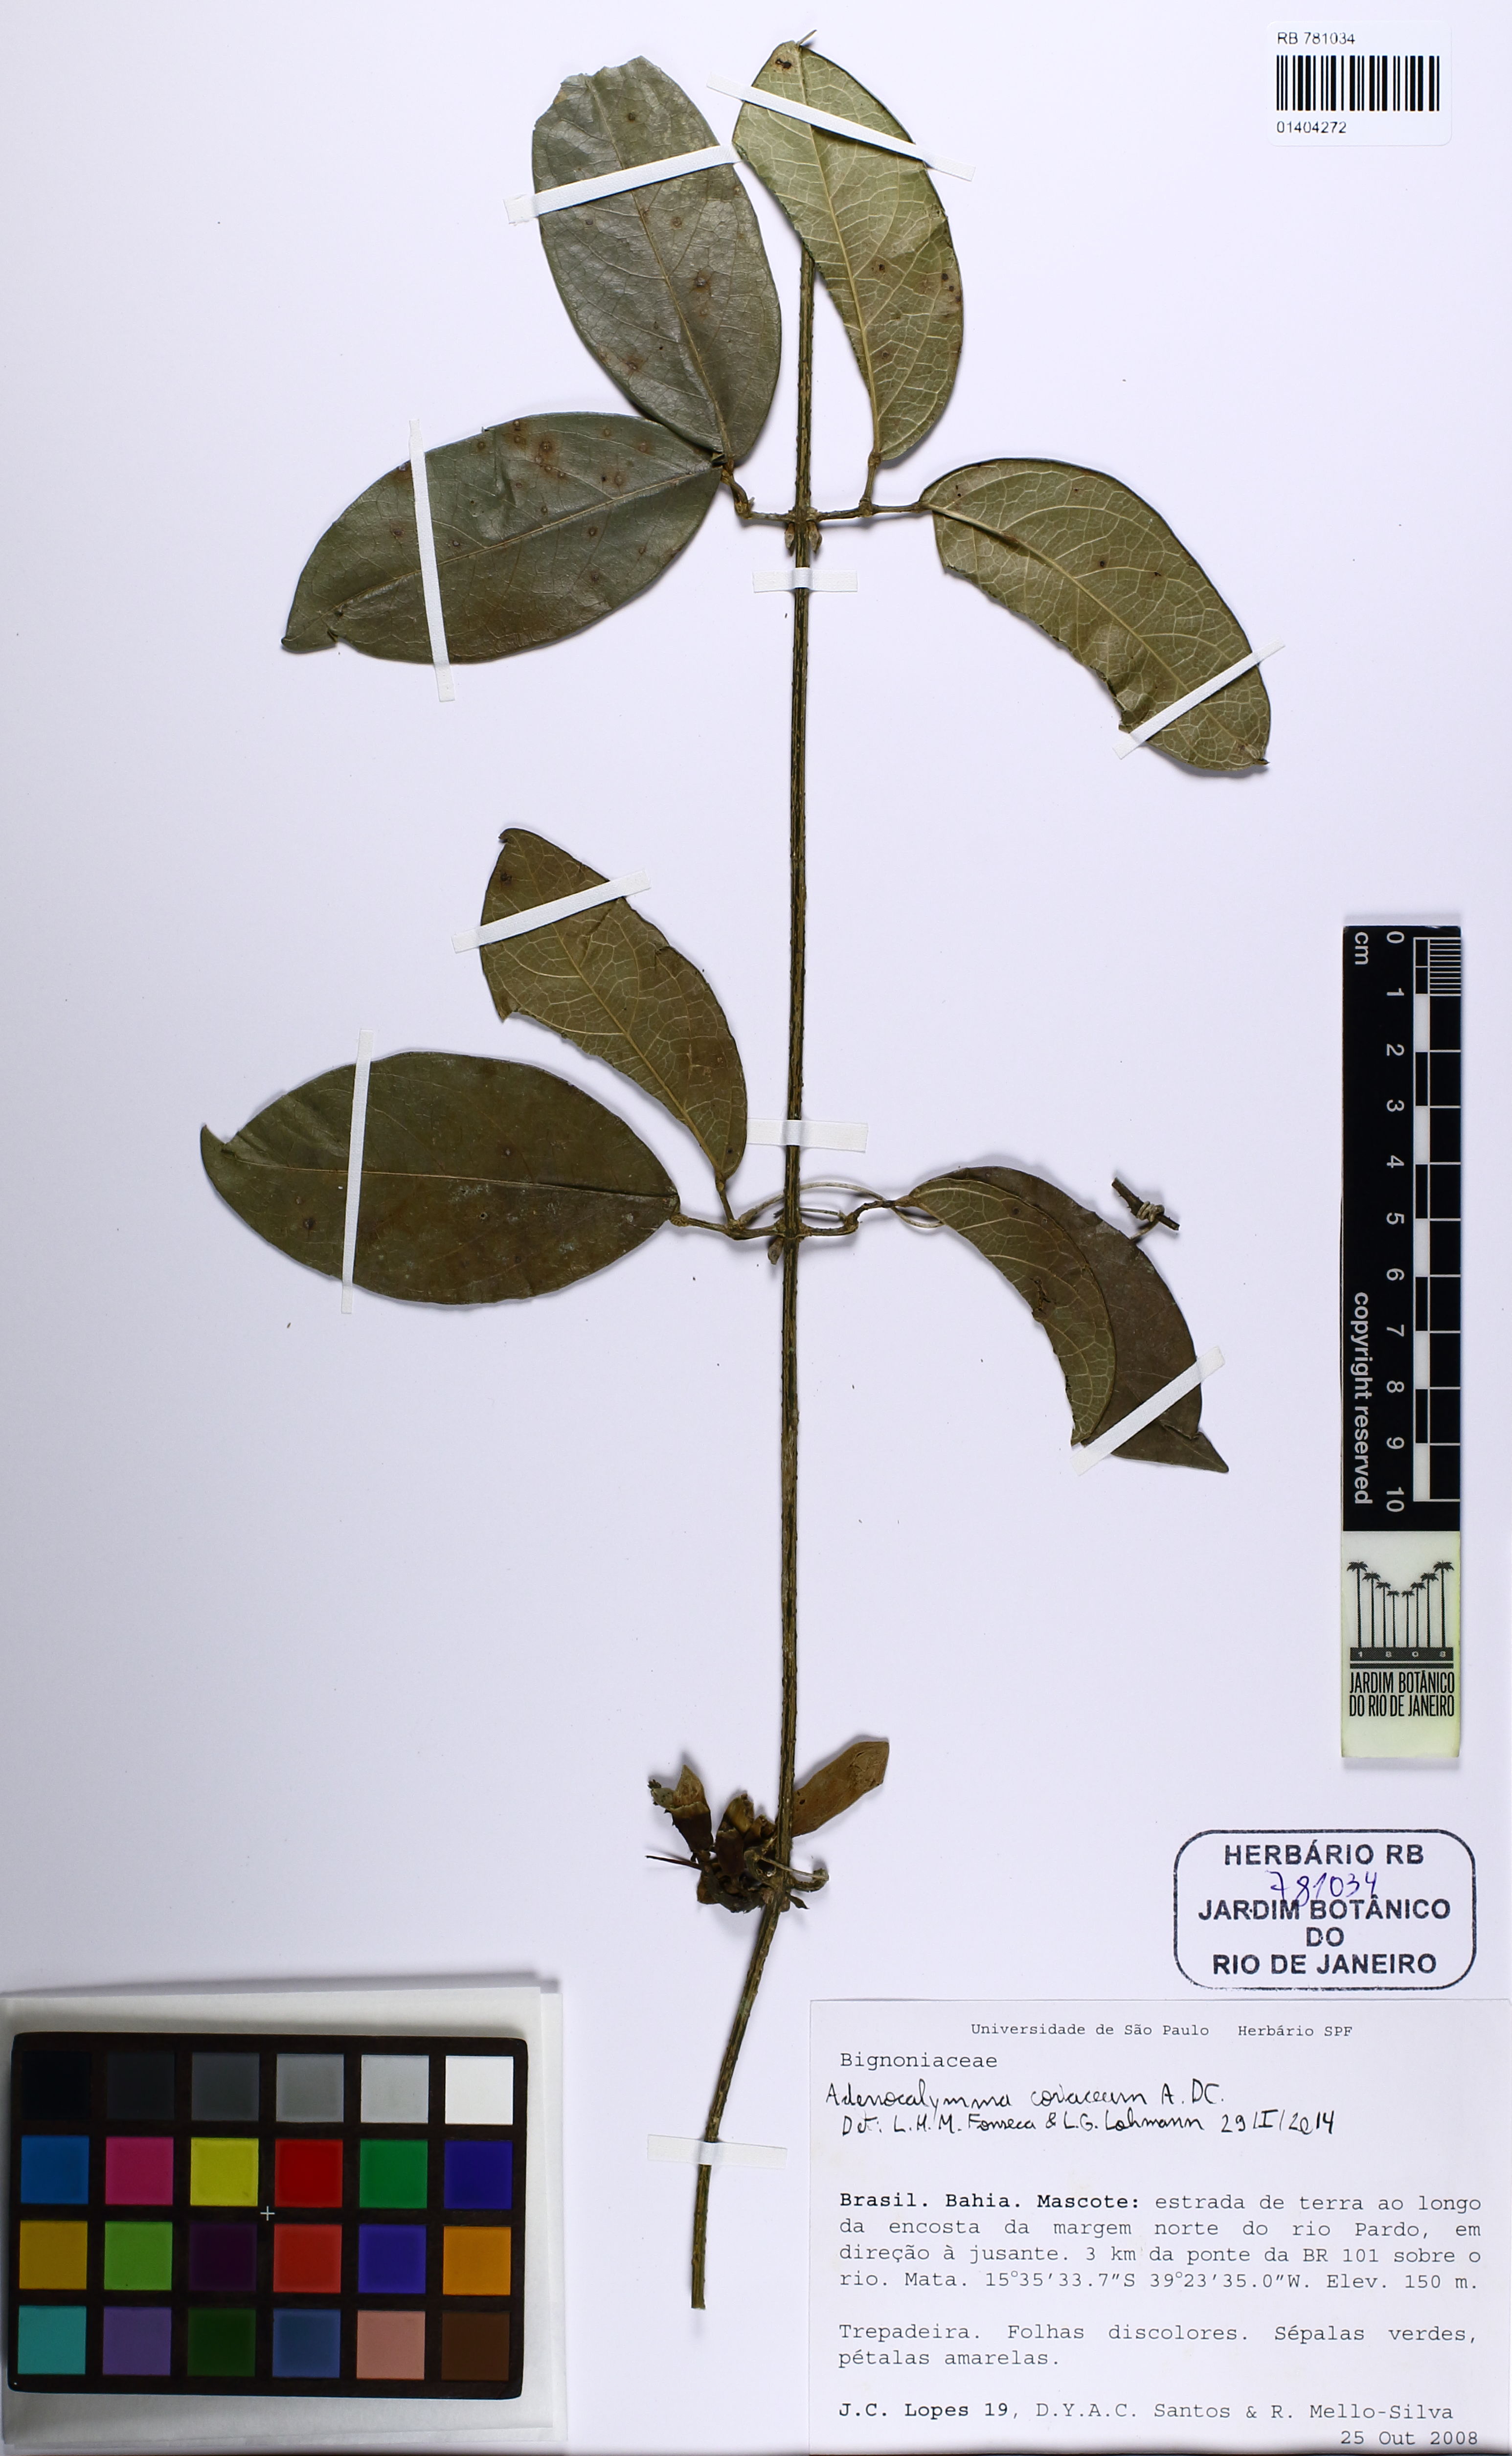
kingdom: Plantae
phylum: Tracheophyta
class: Magnoliopsida
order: Lamiales
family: Bignoniaceae
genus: Adenocalymma
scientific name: Adenocalymma coriaceum
